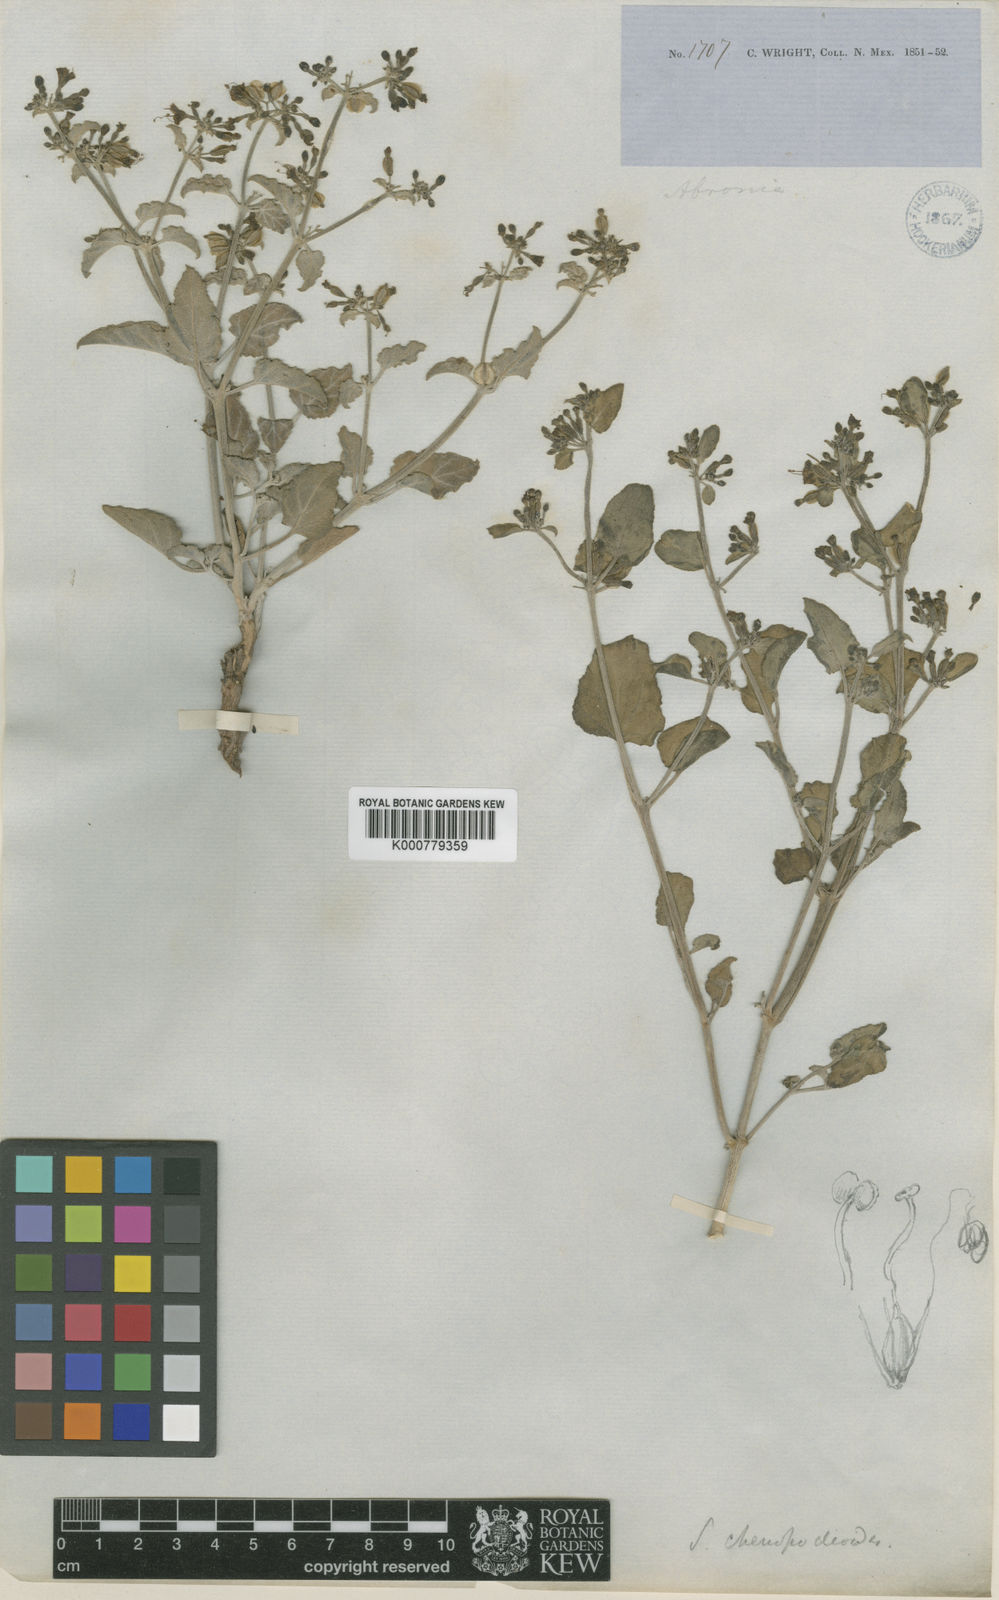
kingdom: Plantae
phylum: Tracheophyta
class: Magnoliopsida
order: Caryophyllales
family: Nyctaginaceae
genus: Acleisanthes
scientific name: Acleisanthes chenopodioides
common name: Goosefoot moonpod
